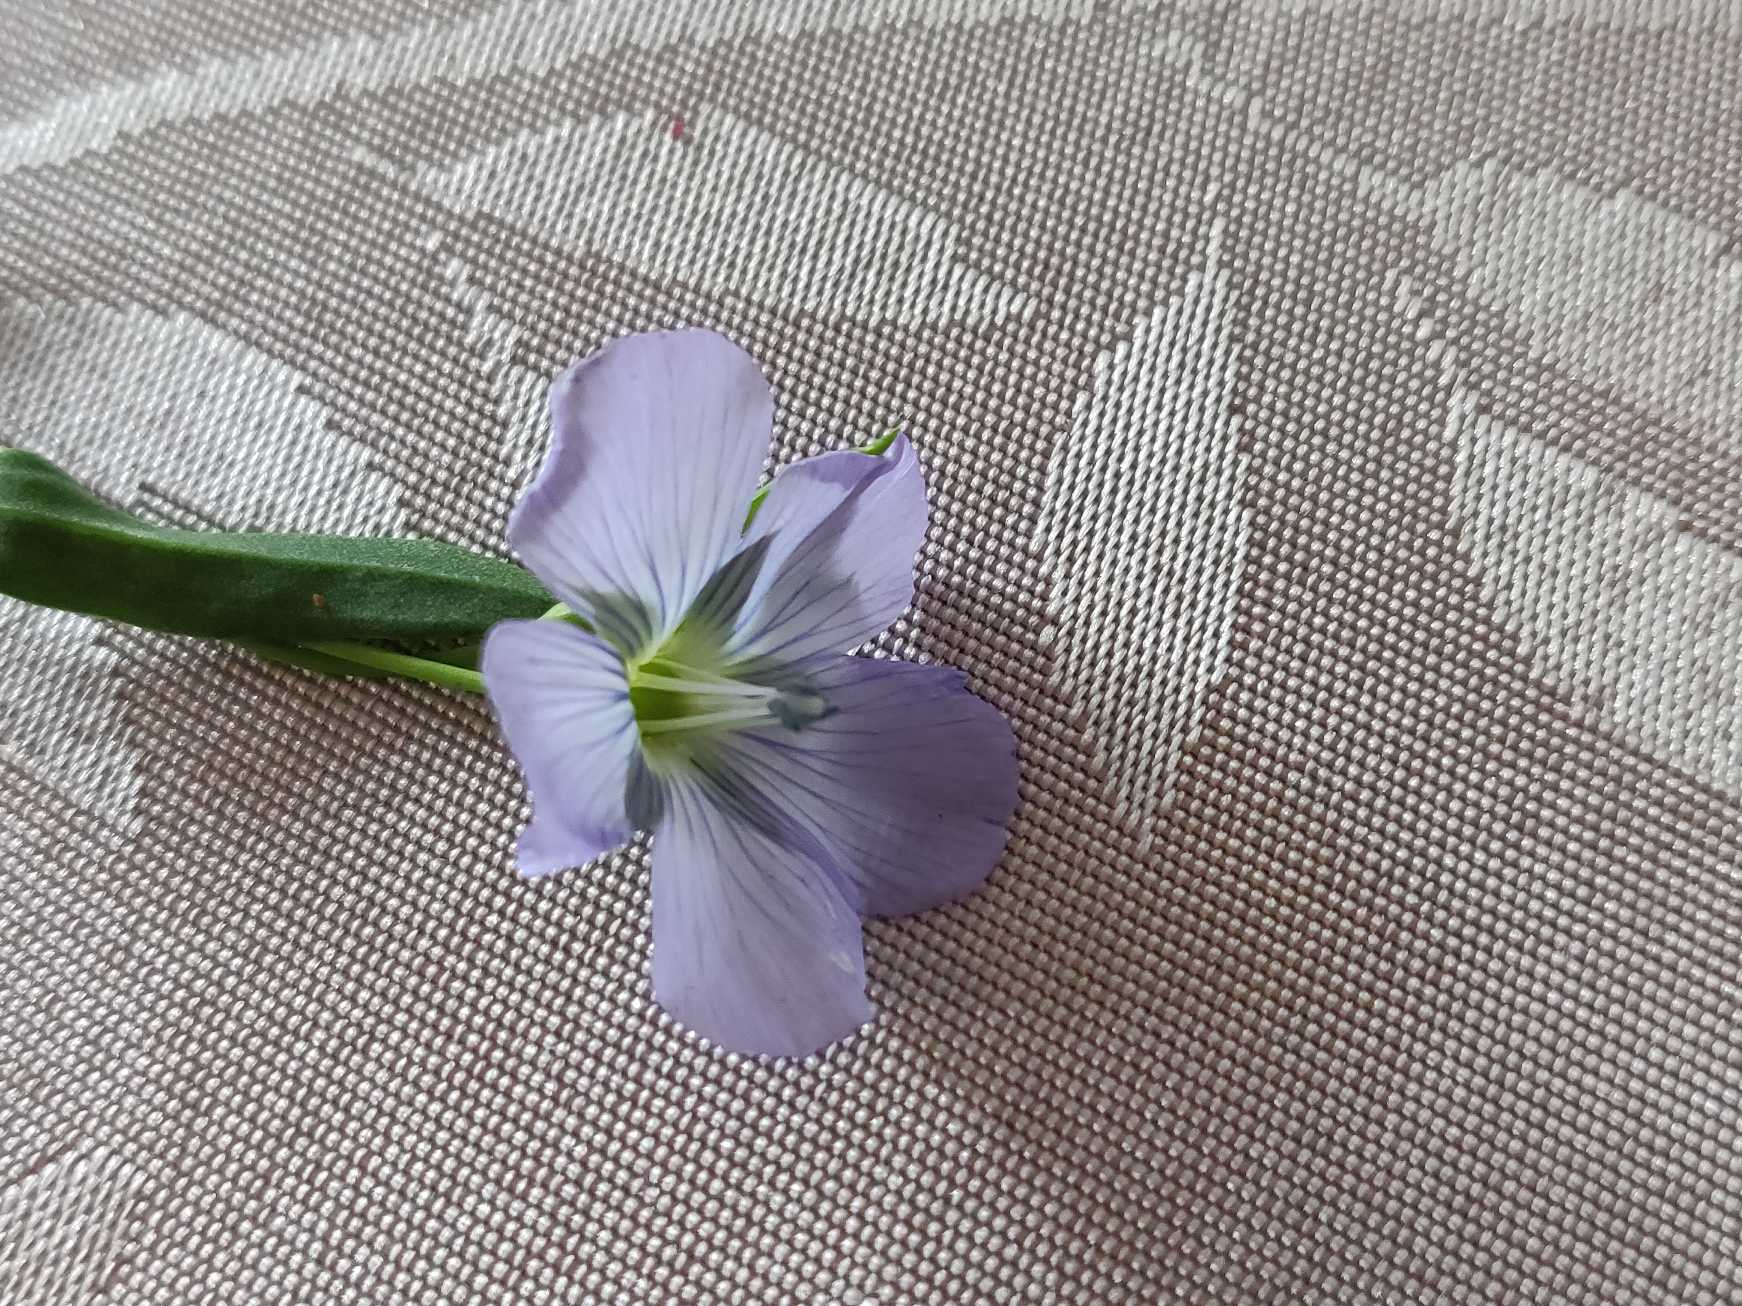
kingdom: Plantae
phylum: Tracheophyta
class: Magnoliopsida
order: Malpighiales
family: Linaceae
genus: Linum
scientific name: Linum
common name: Hørslægten
